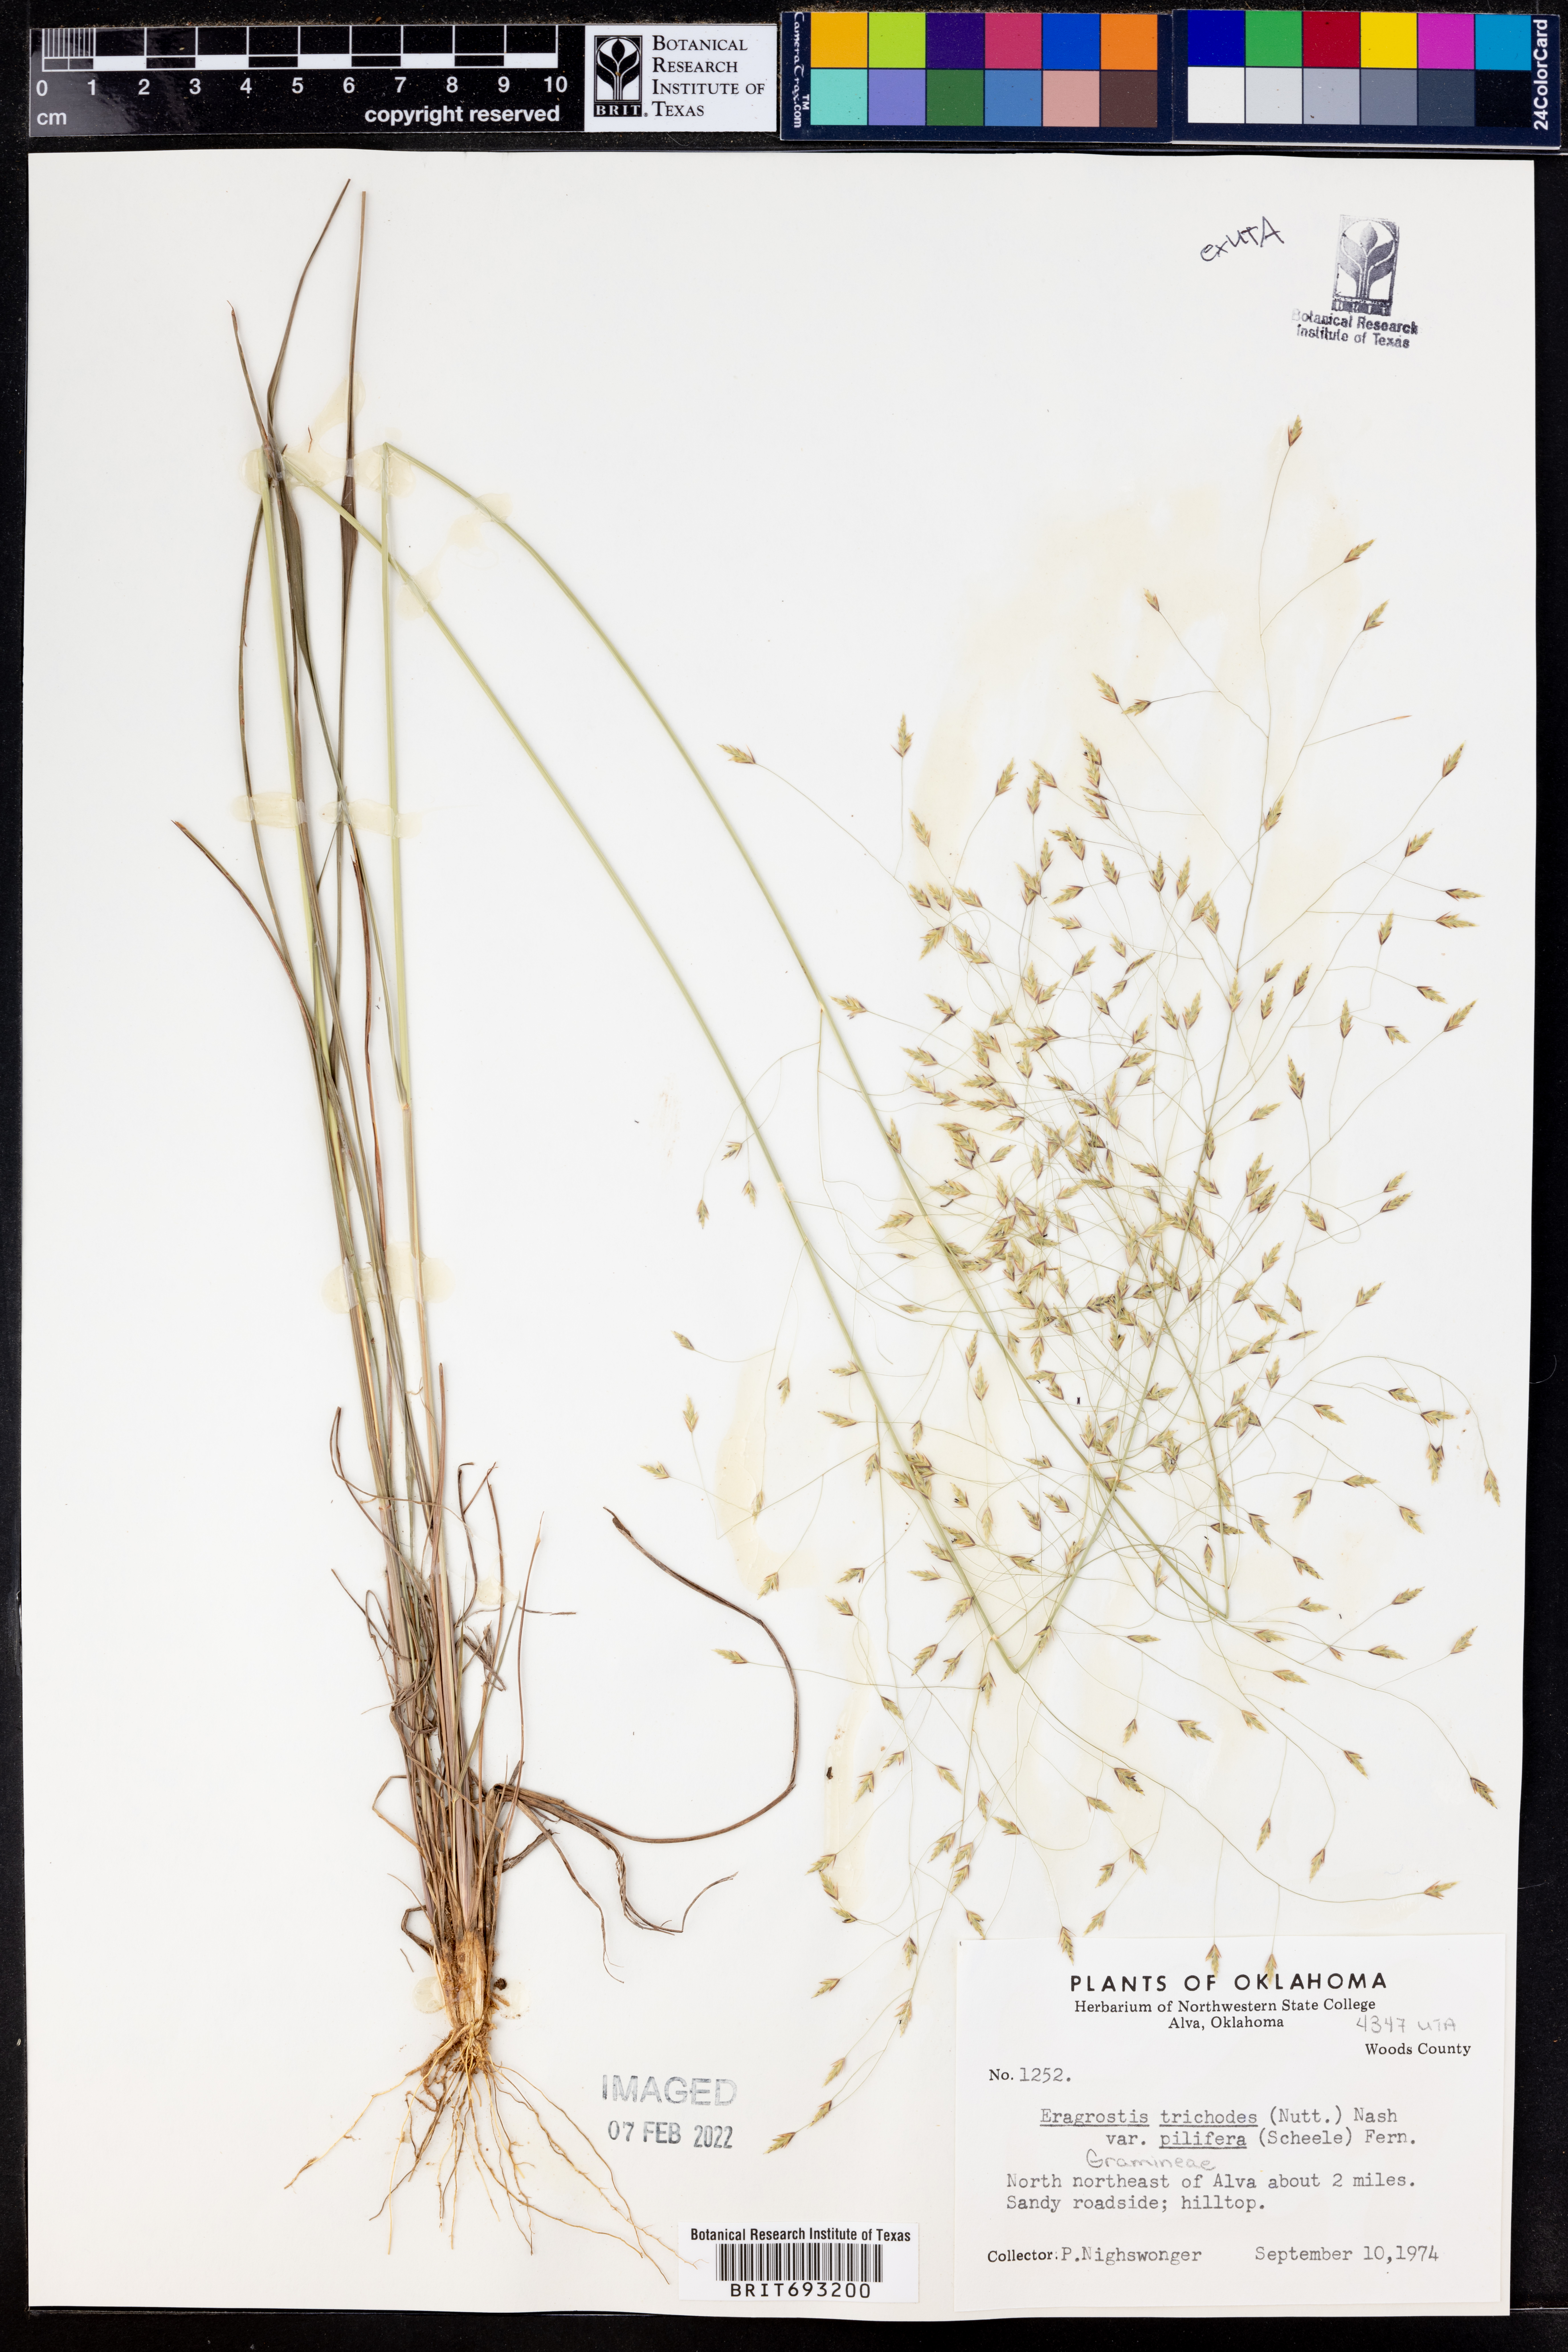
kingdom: Plantae
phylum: Tracheophyta
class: Liliopsida
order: Poales
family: Poaceae
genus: Eragrostis
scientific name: Eragrostis trichodes
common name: Sand love grass
